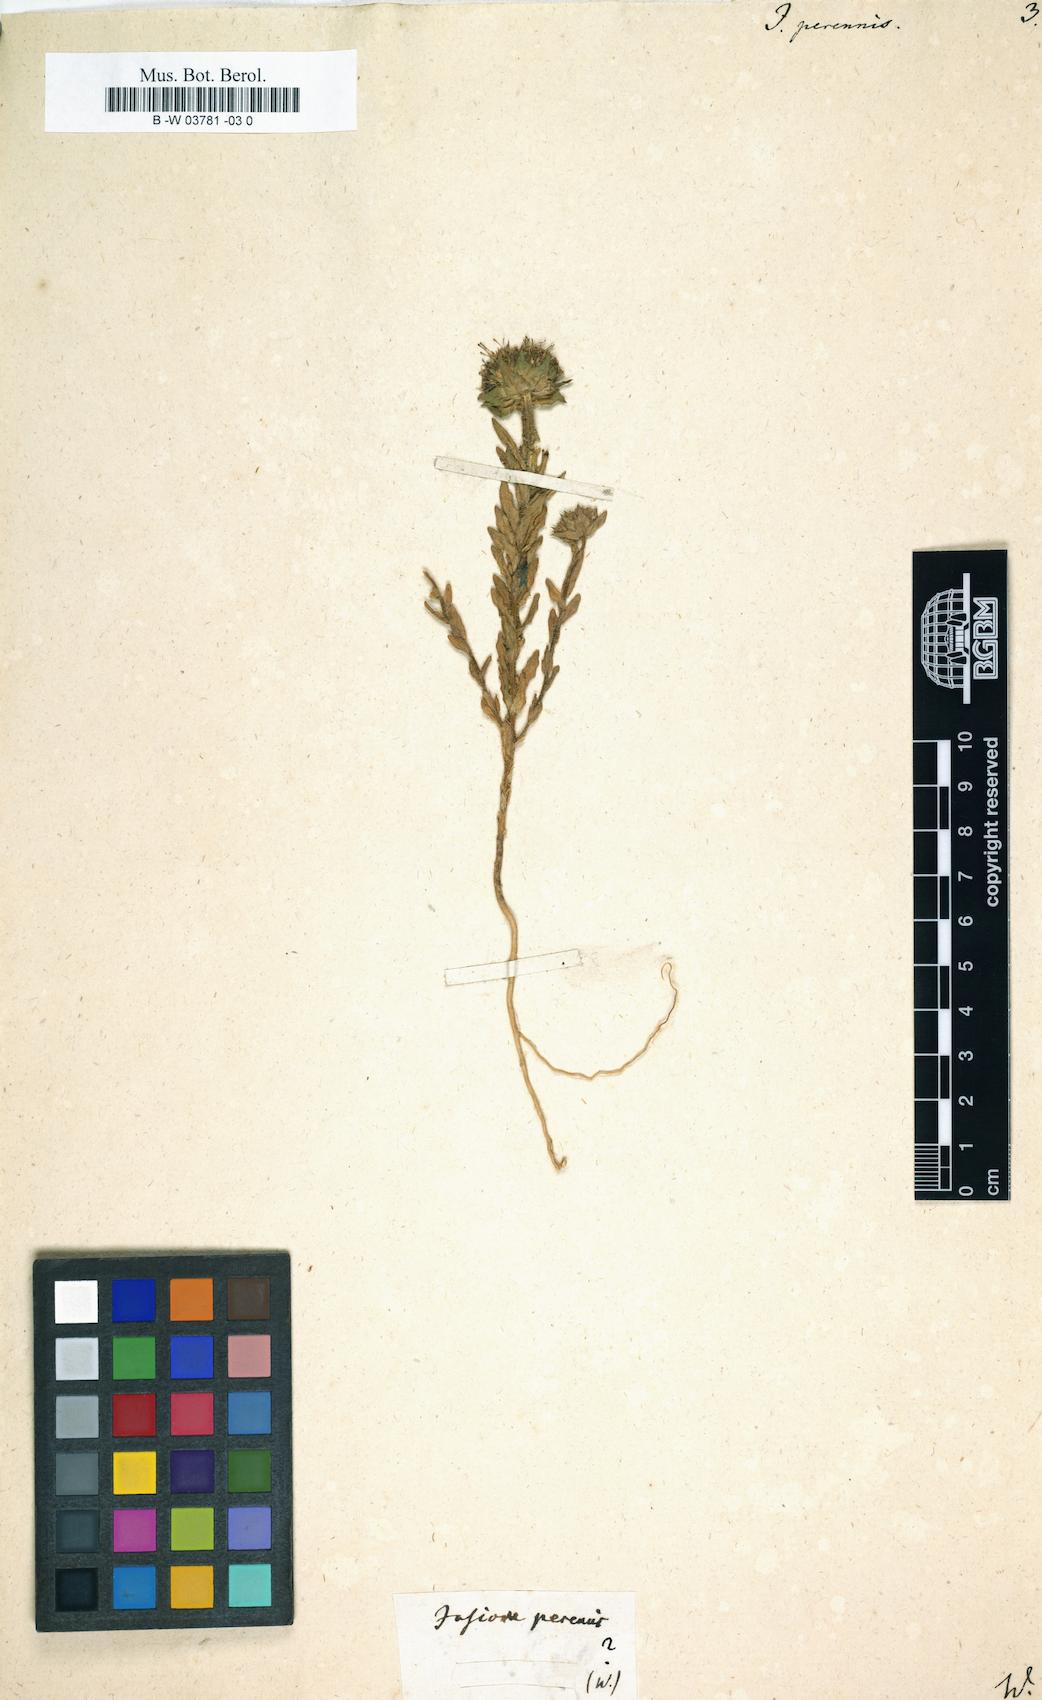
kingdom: Plantae
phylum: Tracheophyta
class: Magnoliopsida
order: Asterales
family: Campanulaceae
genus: Jasione
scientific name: Jasione perennis
